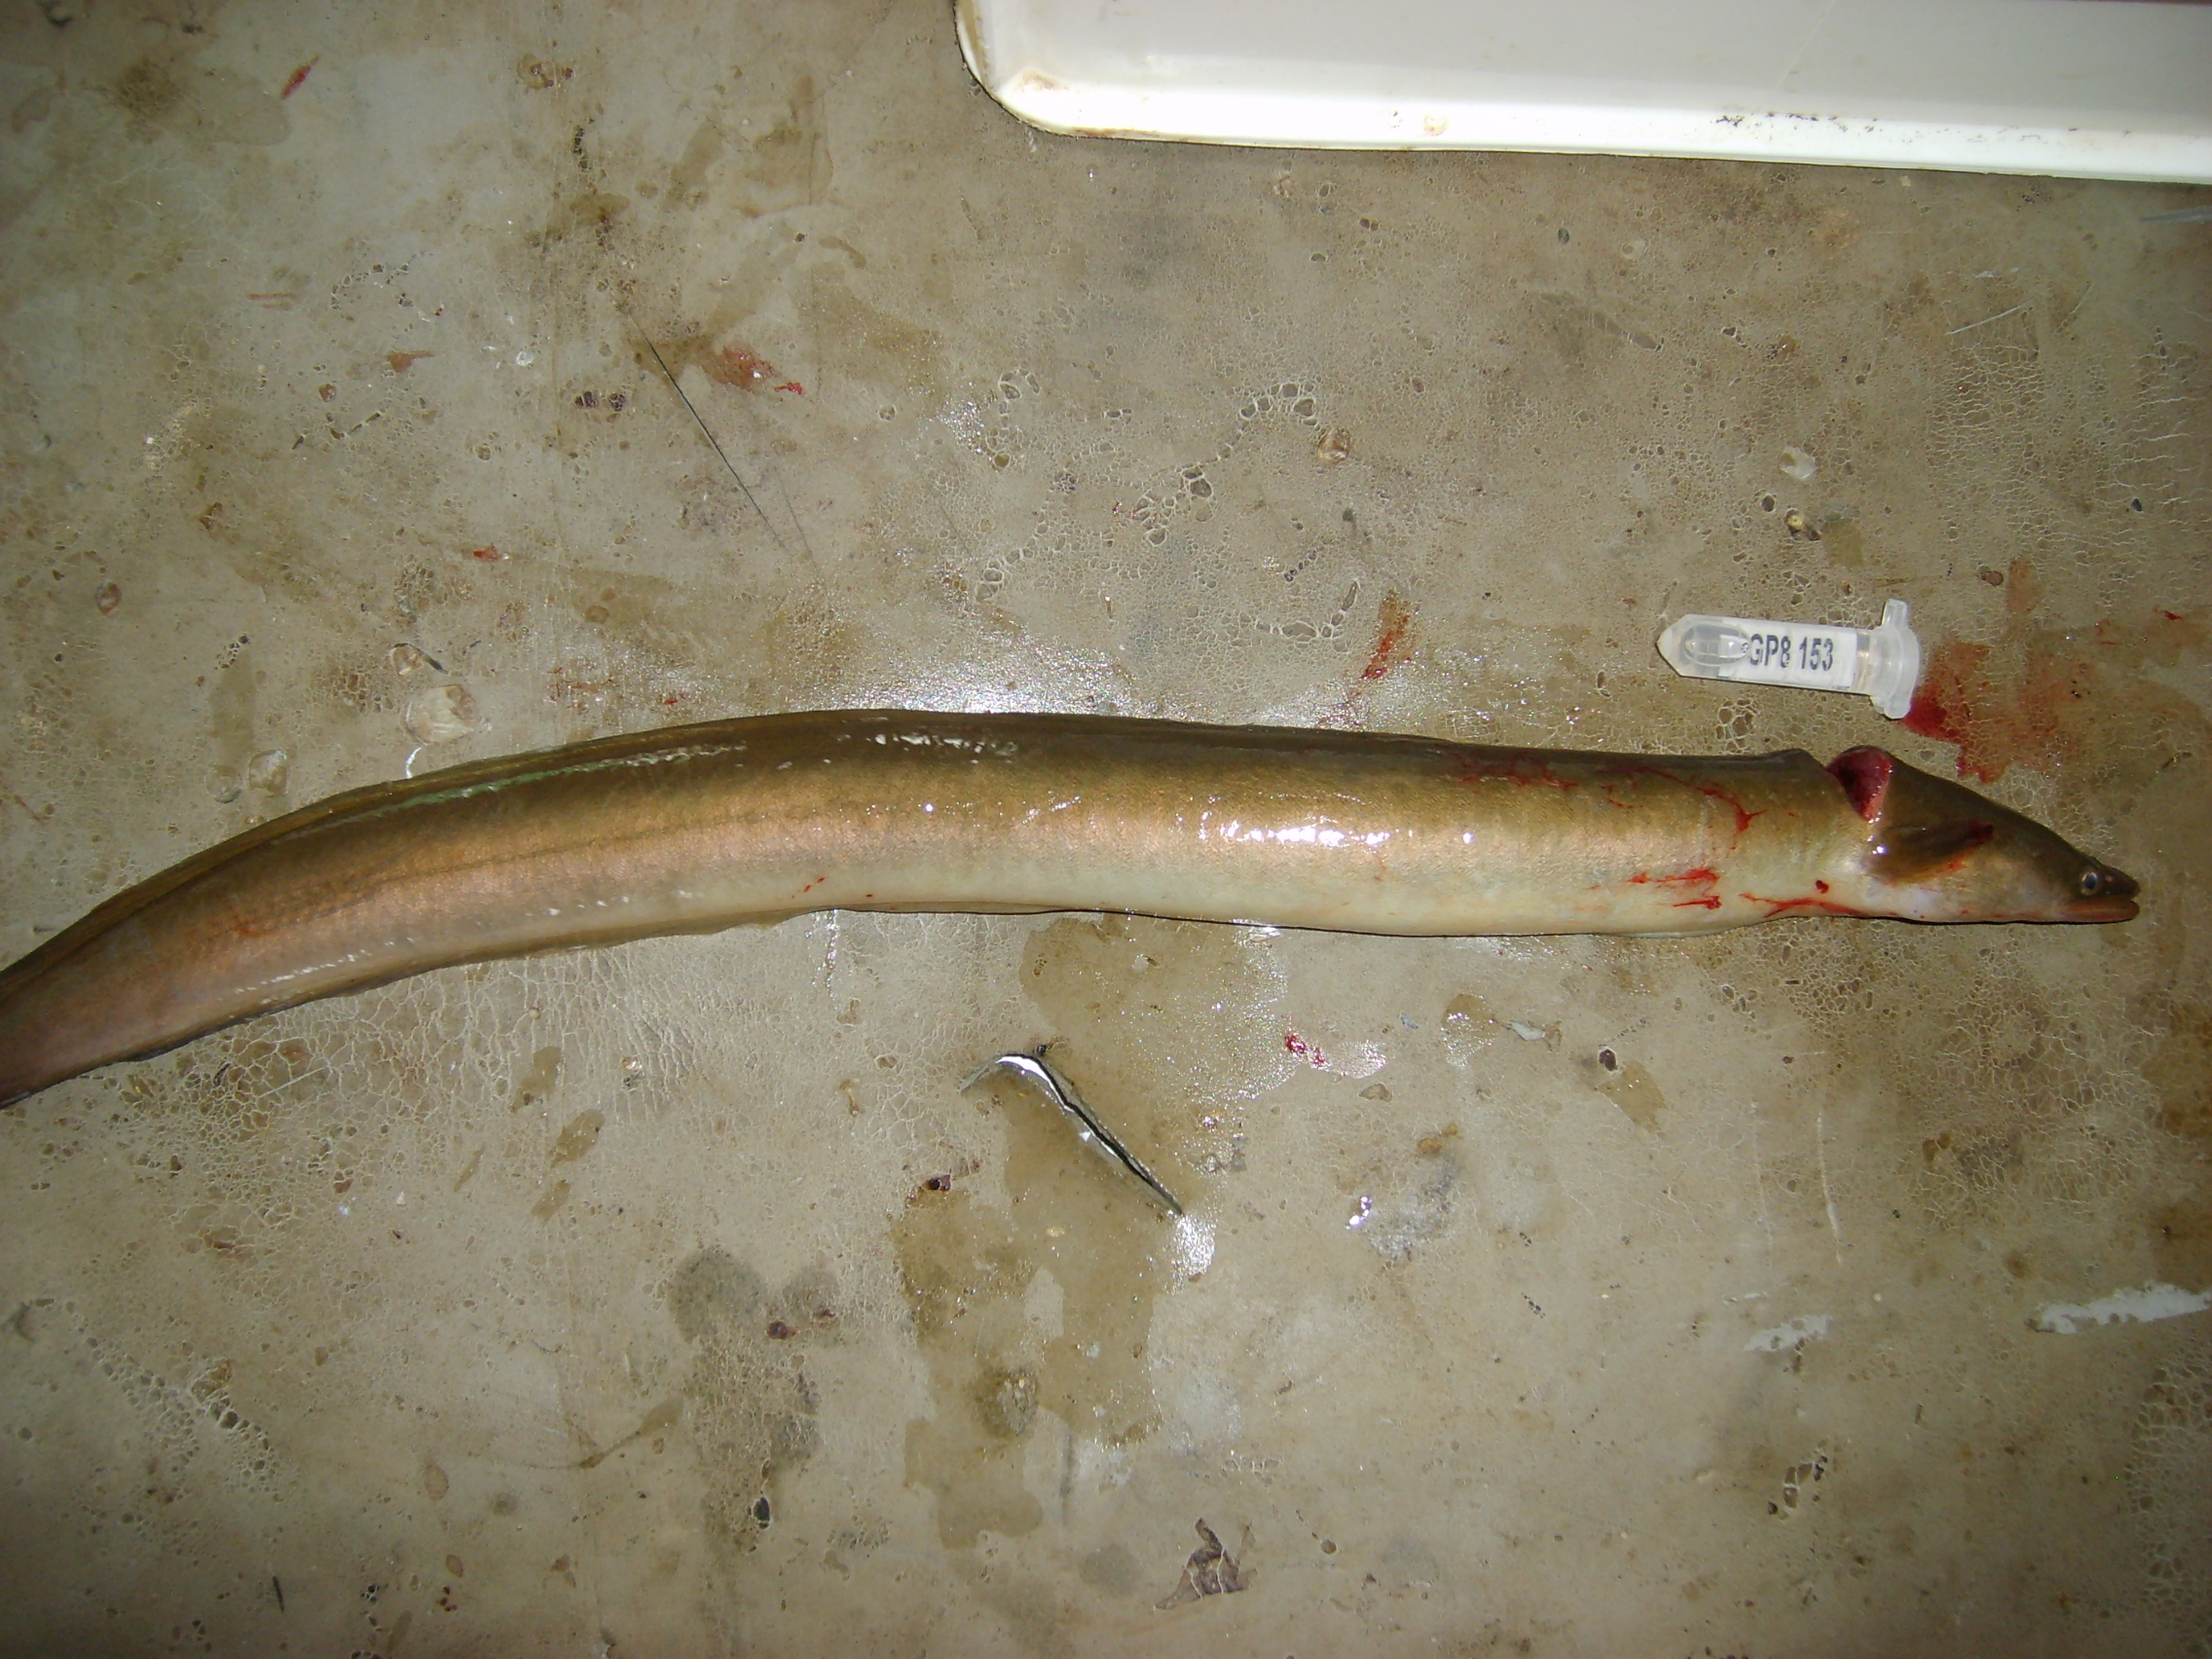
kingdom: Animalia
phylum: Chordata
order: Anguilliformes
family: Anguillidae
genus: Anguilla
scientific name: Anguilla mossambica
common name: African longfin eel
